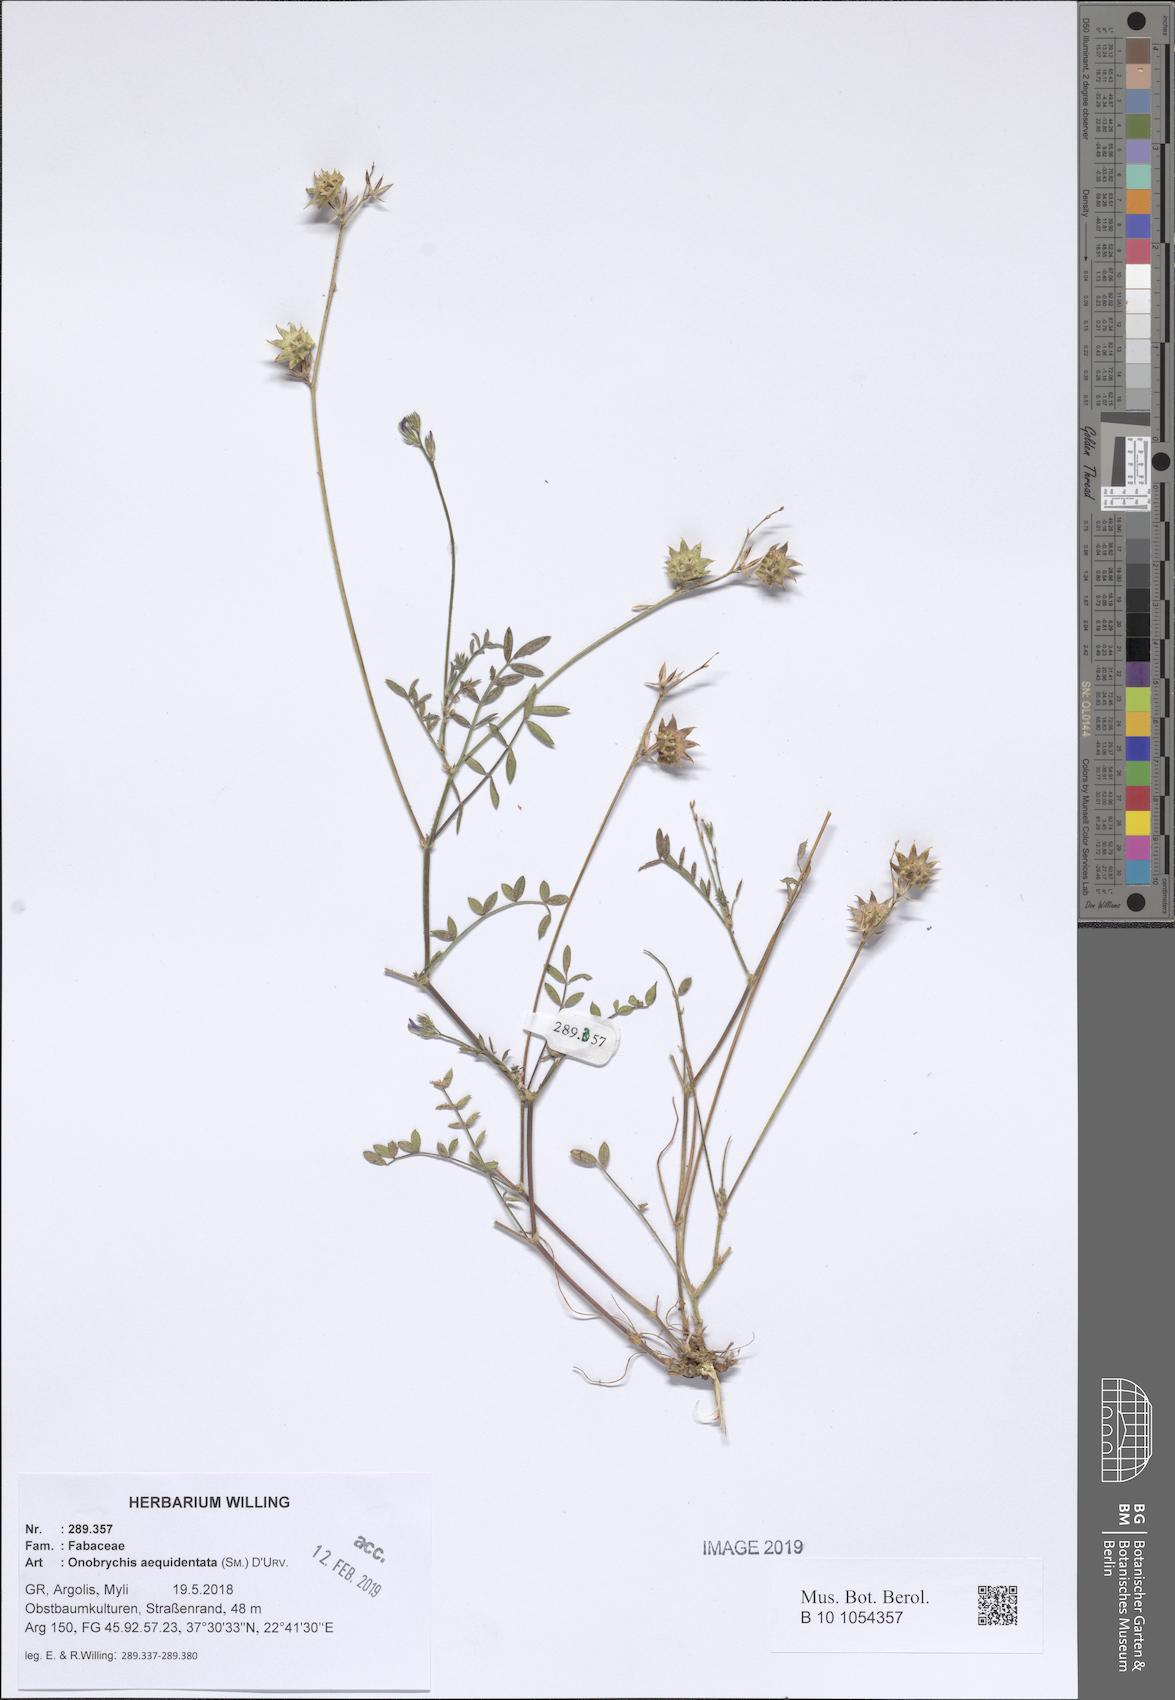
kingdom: Plantae
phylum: Tracheophyta
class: Magnoliopsida
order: Fabales
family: Fabaceae
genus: Onobrychis
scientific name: Onobrychis aequidentata
